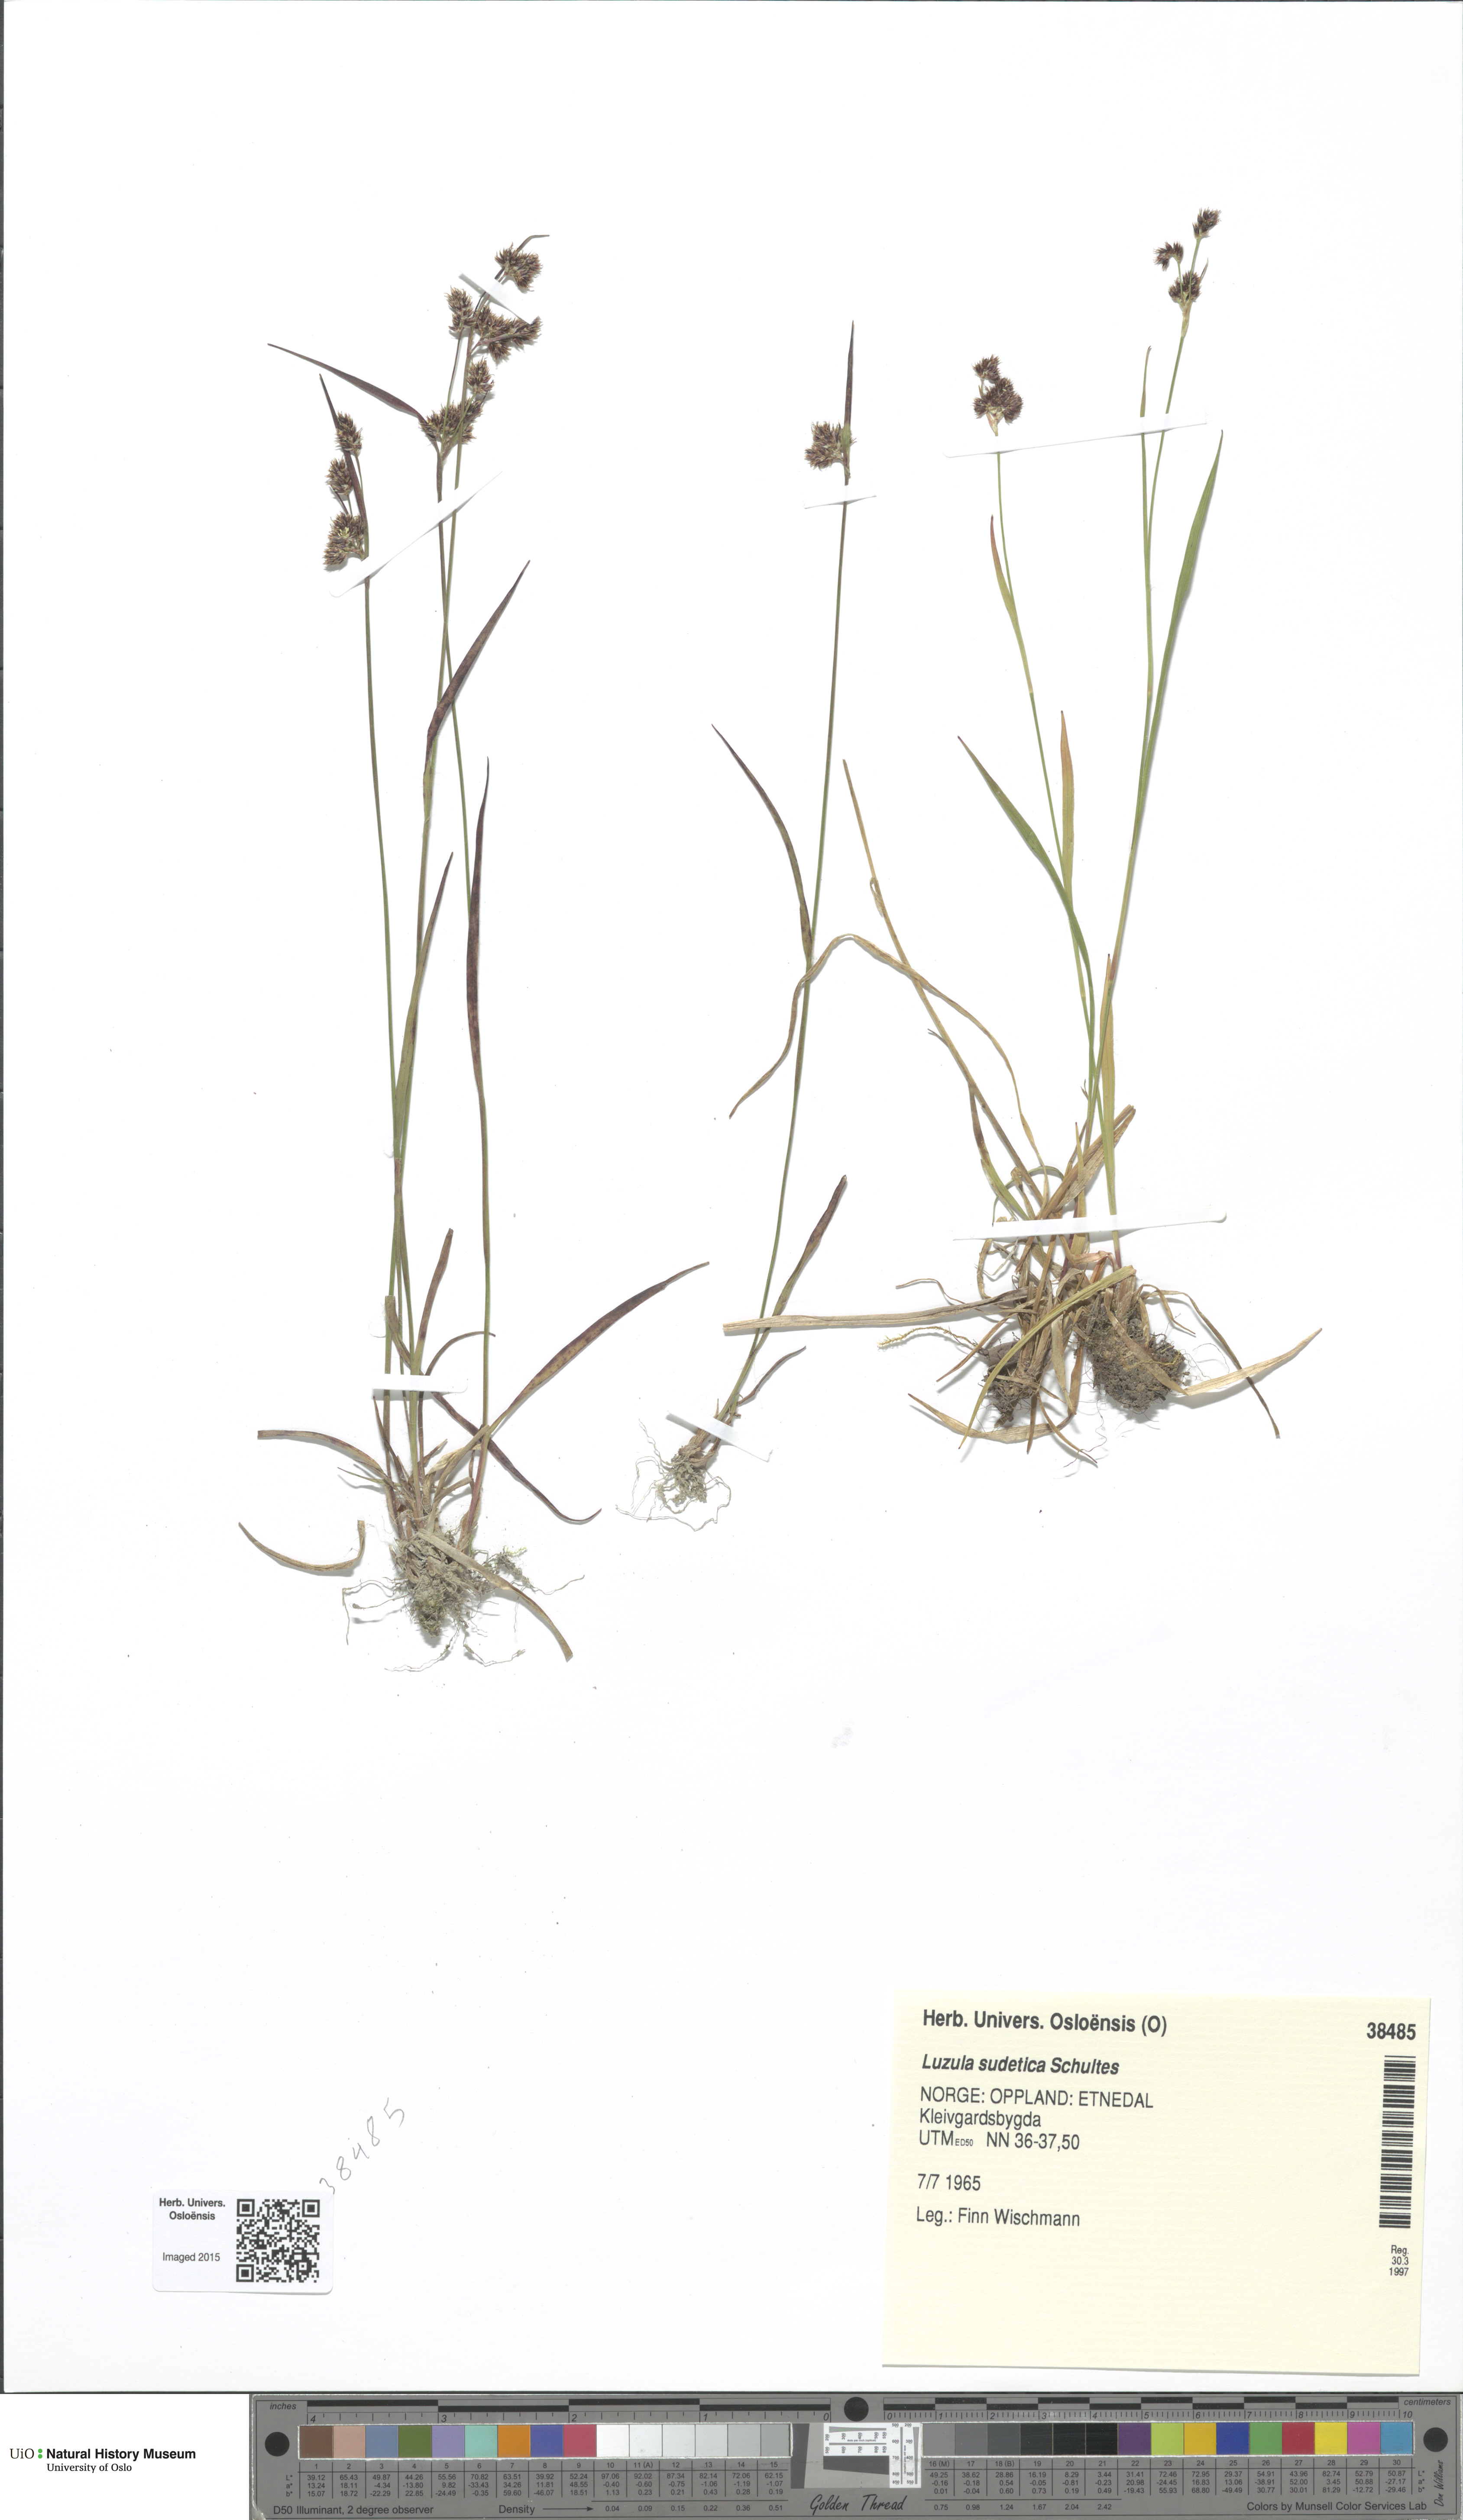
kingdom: Plantae
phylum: Tracheophyta
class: Liliopsida
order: Poales
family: Juncaceae
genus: Luzula
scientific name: Luzula sudetica
